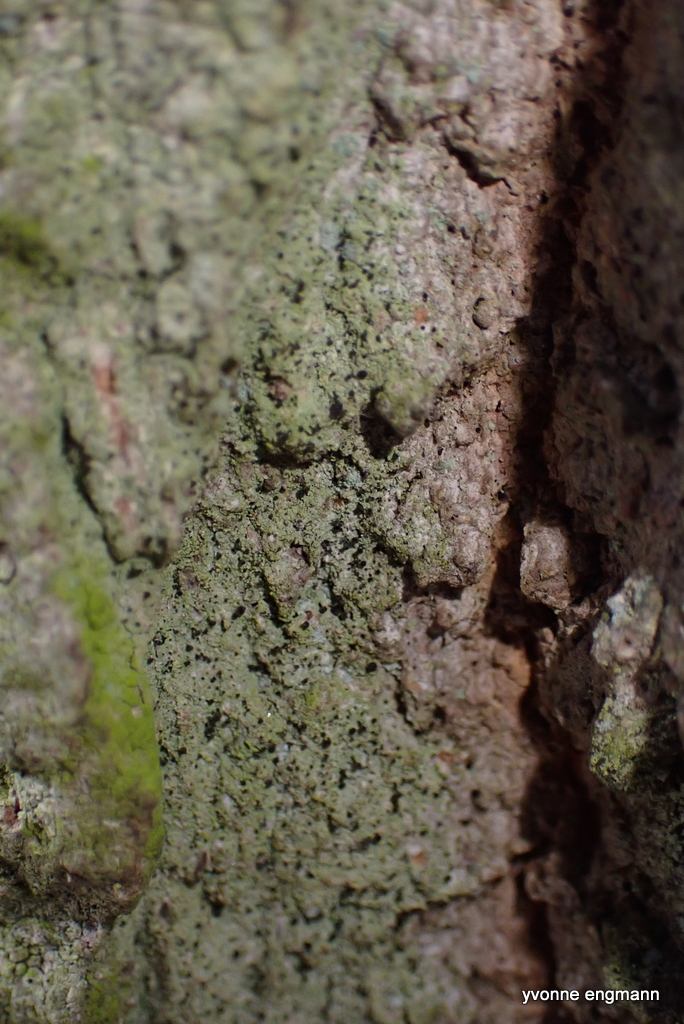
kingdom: Fungi
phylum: Ascomycota
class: Lecanoromycetes
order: Caliciales
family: Caliciaceae
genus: Calicium
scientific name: Calicium viride
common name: gulgrøn nålelav
